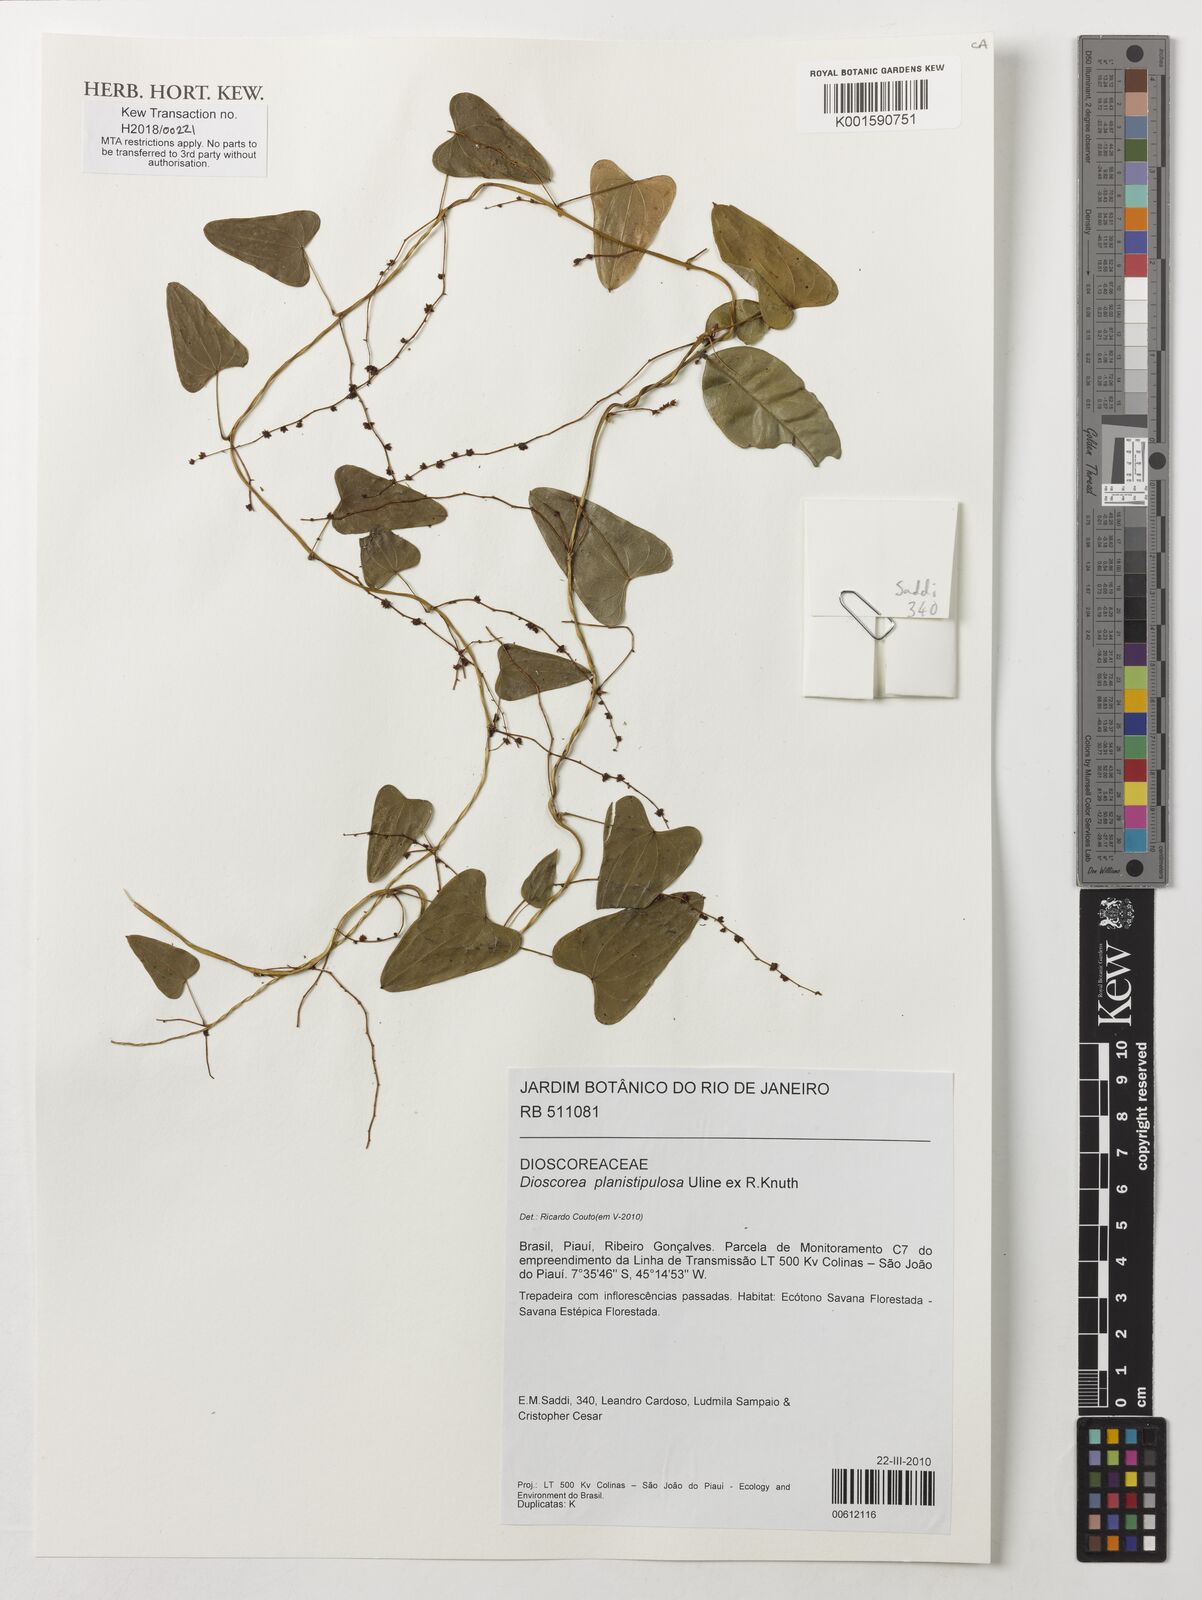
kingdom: Plantae
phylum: Tracheophyta
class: Liliopsida
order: Dioscoreales
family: Dioscoreaceae
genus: Dioscorea
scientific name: Dioscorea planistipulosa
